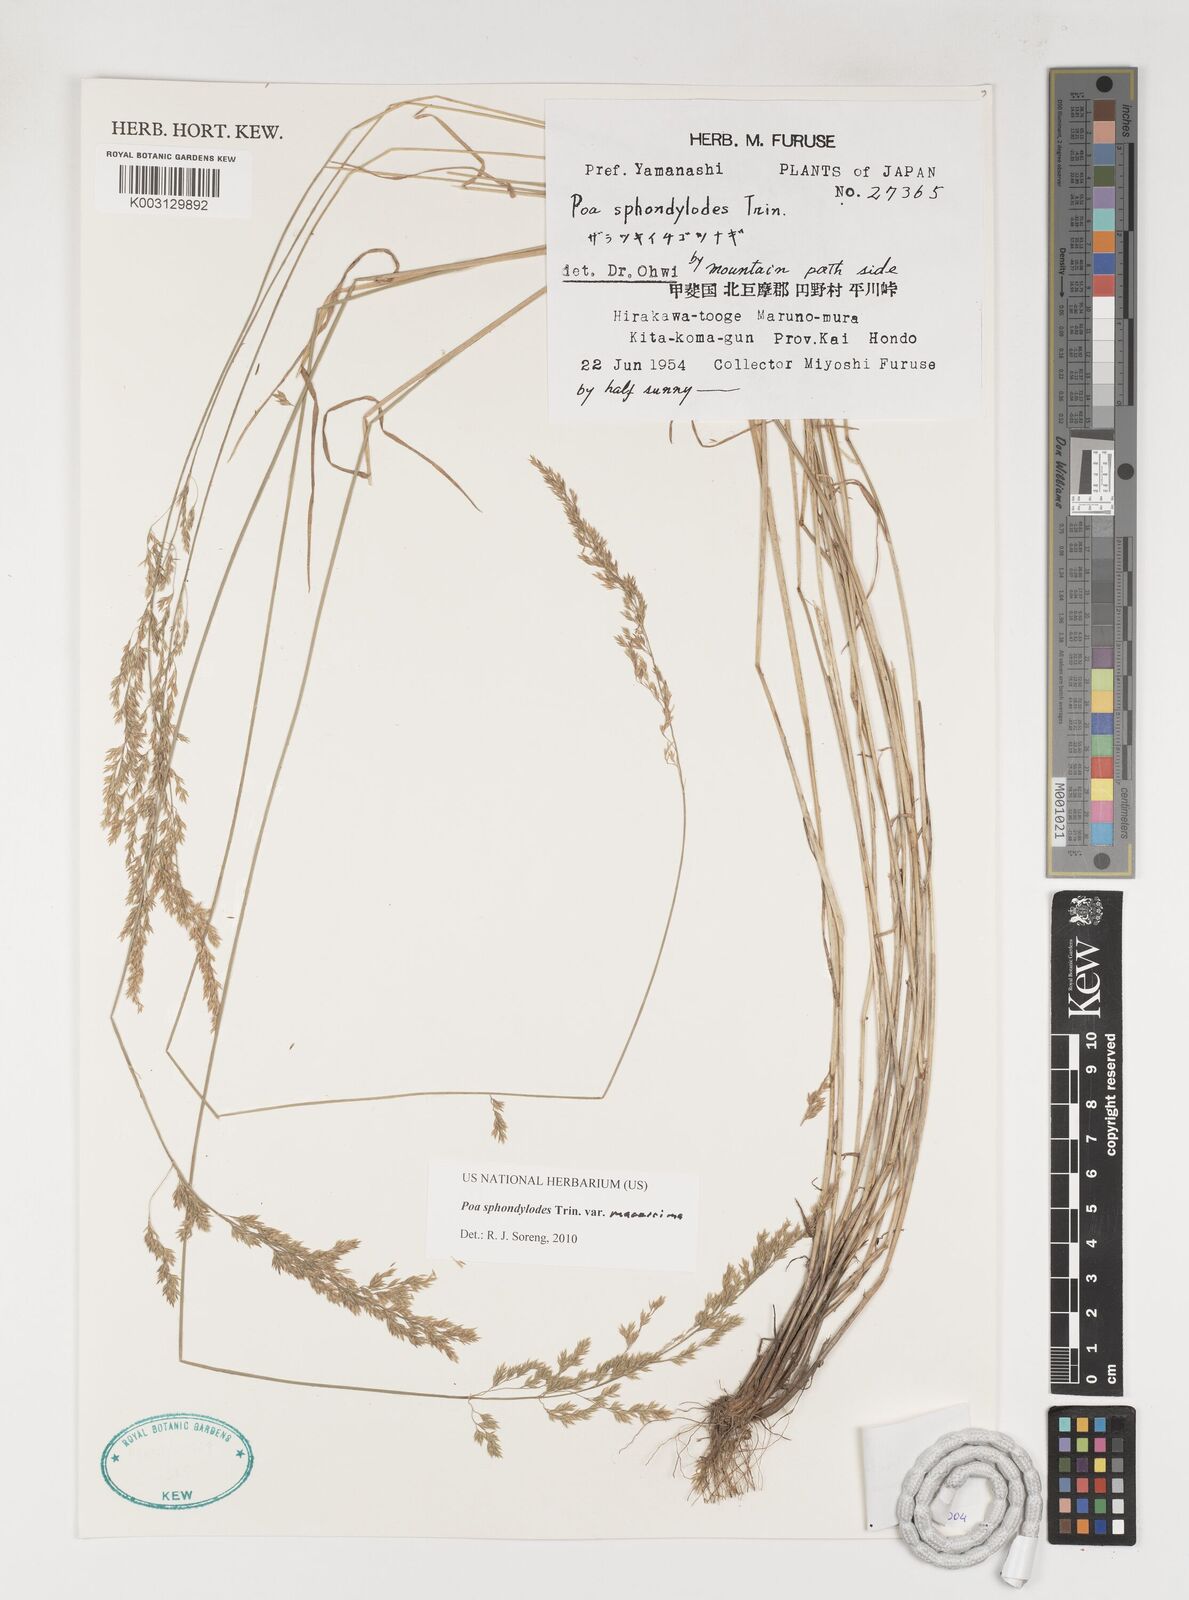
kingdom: Plantae
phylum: Tracheophyta
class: Liliopsida
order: Poales
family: Poaceae
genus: Poa
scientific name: Poa sphondylodes
